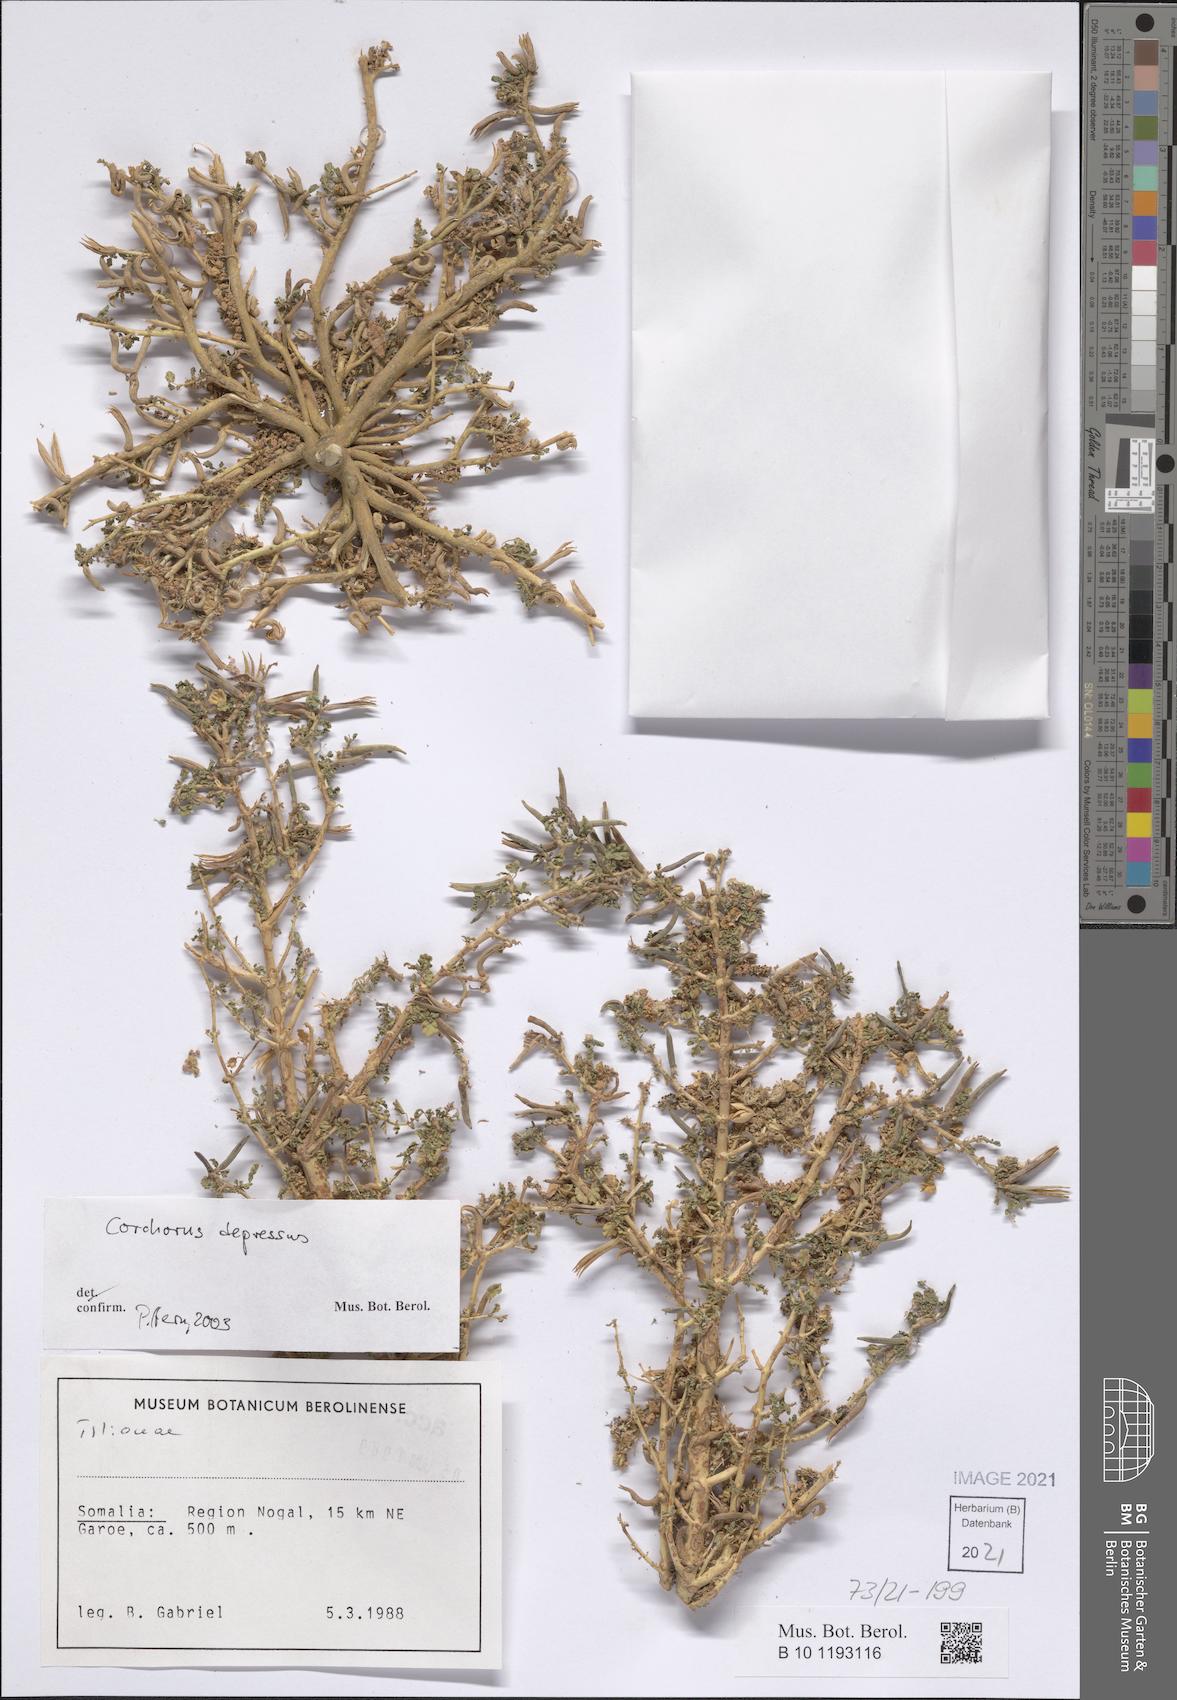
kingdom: Plantae
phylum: Tracheophyta
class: Magnoliopsida
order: Malvales
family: Malvaceae
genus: Corchorus
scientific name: Corchorus depressus
